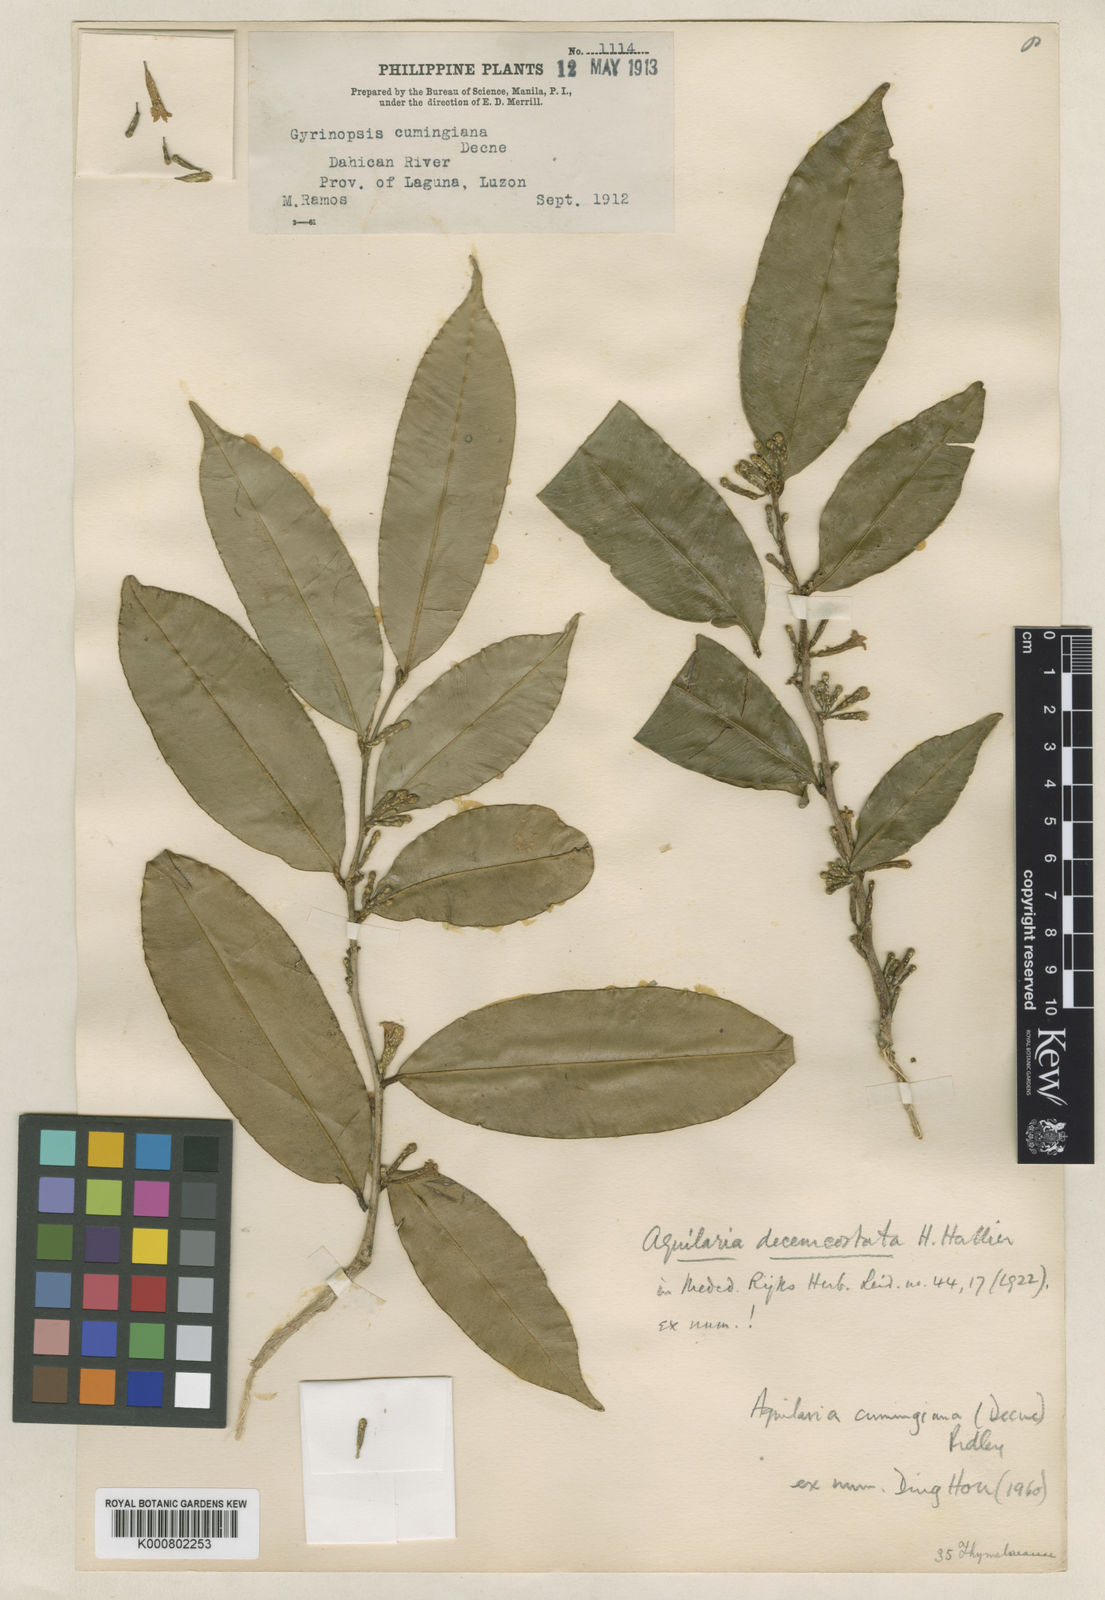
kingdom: Plantae
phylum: Tracheophyta
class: Magnoliopsida
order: Malvales
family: Thymelaeaceae
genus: Aquilaria
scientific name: Aquilaria cumingiana
